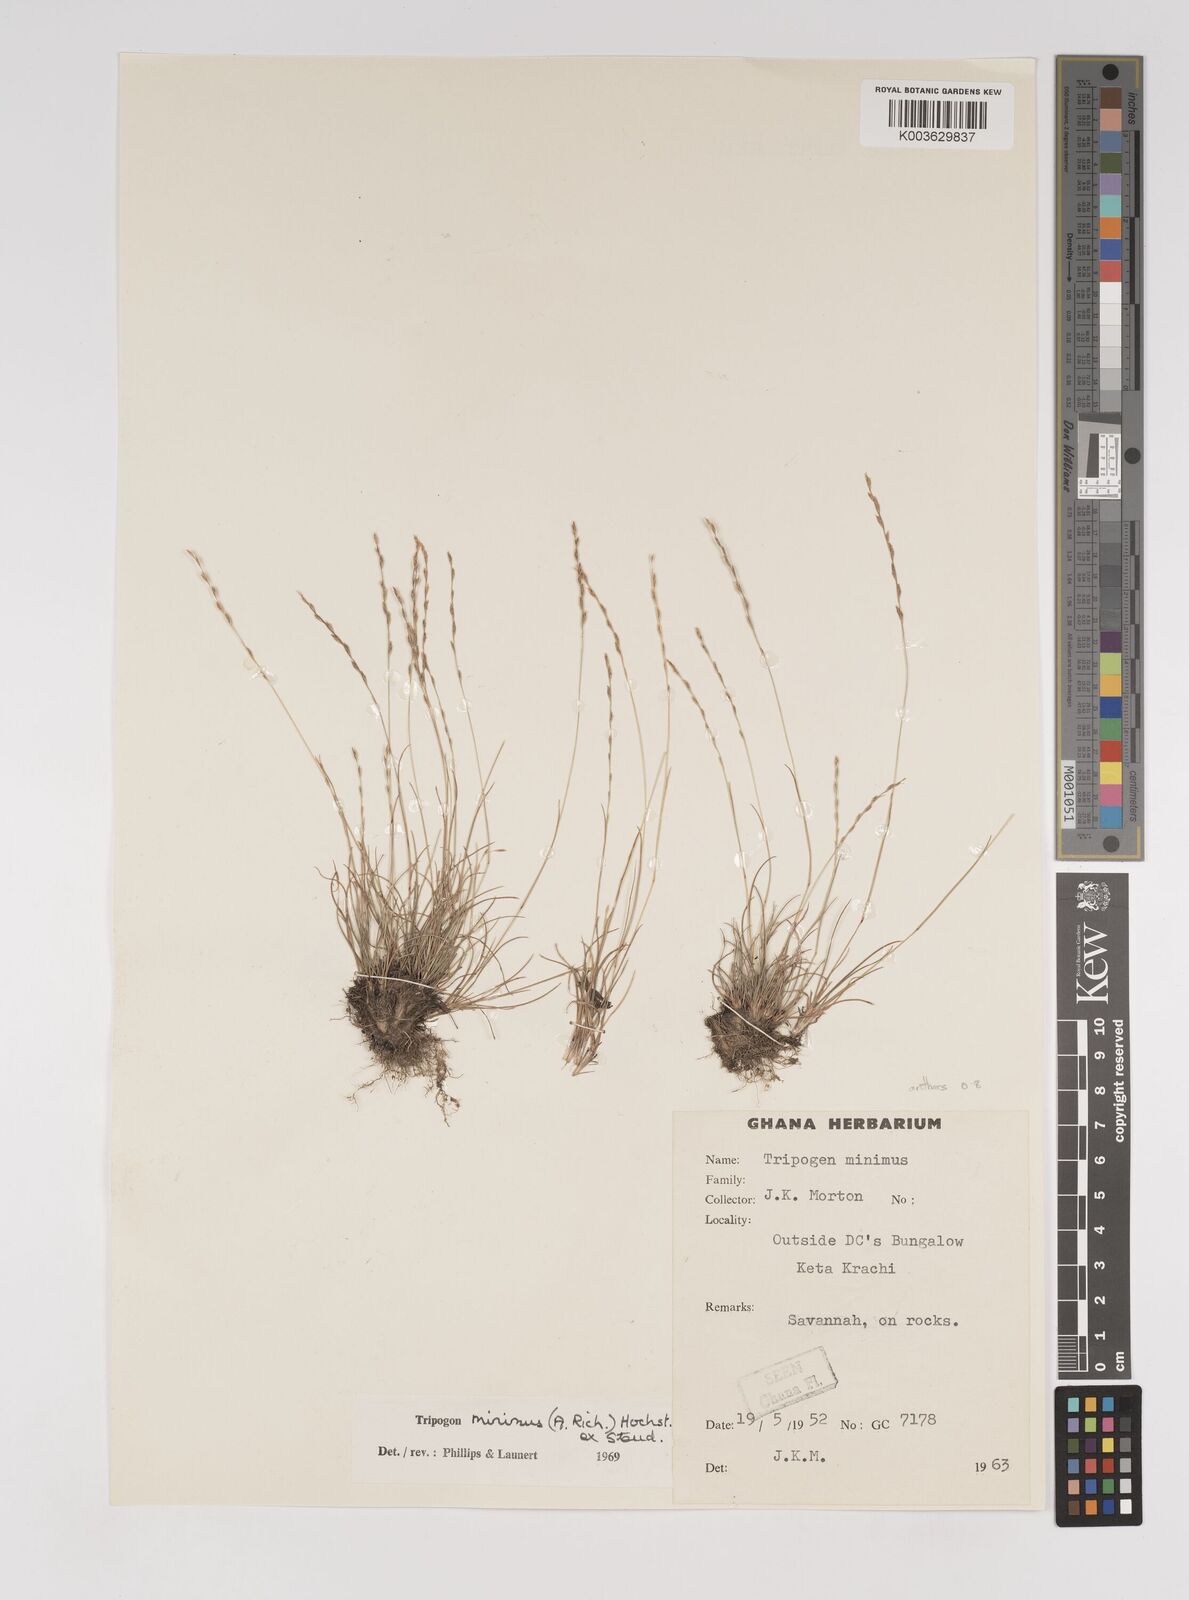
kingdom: Plantae
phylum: Tracheophyta
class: Liliopsida
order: Poales
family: Poaceae
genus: Tripogonella
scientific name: Tripogonella minima
